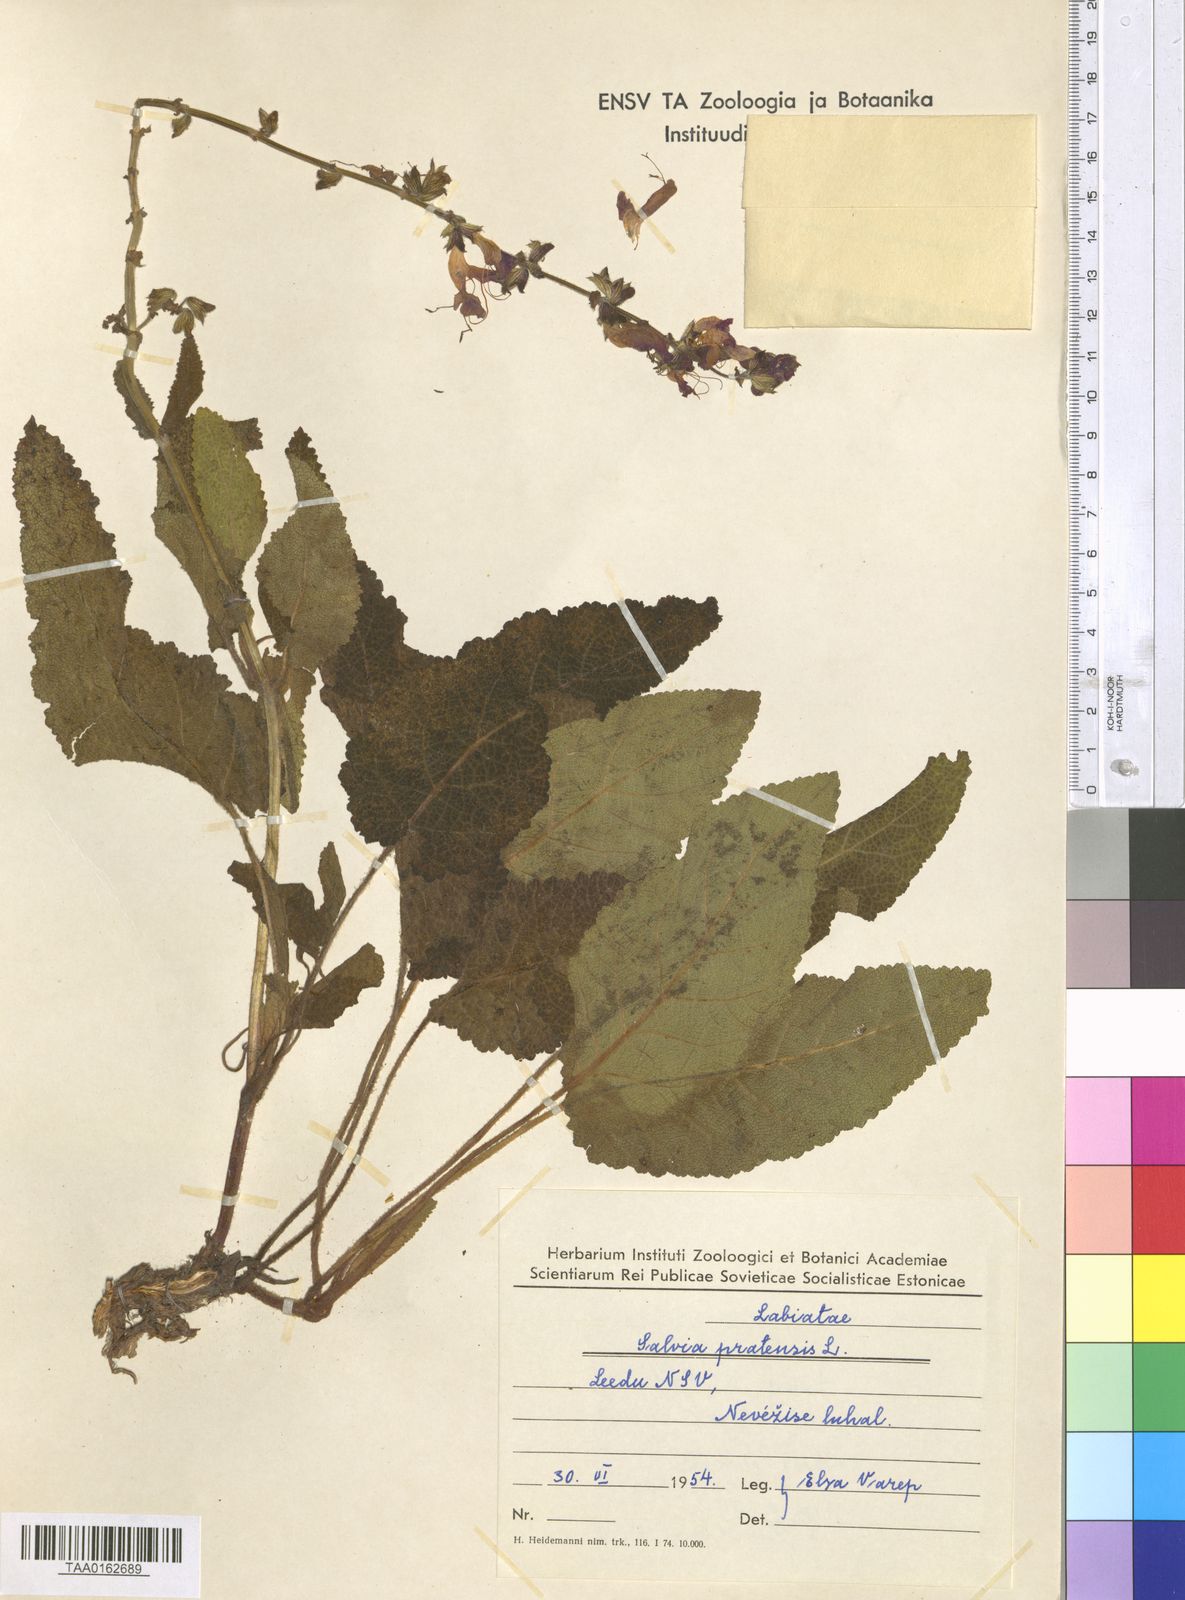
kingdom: Plantae
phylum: Tracheophyta
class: Magnoliopsida
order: Lamiales
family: Lamiaceae
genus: Salvia
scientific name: Salvia pratensis
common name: Meadow sage
